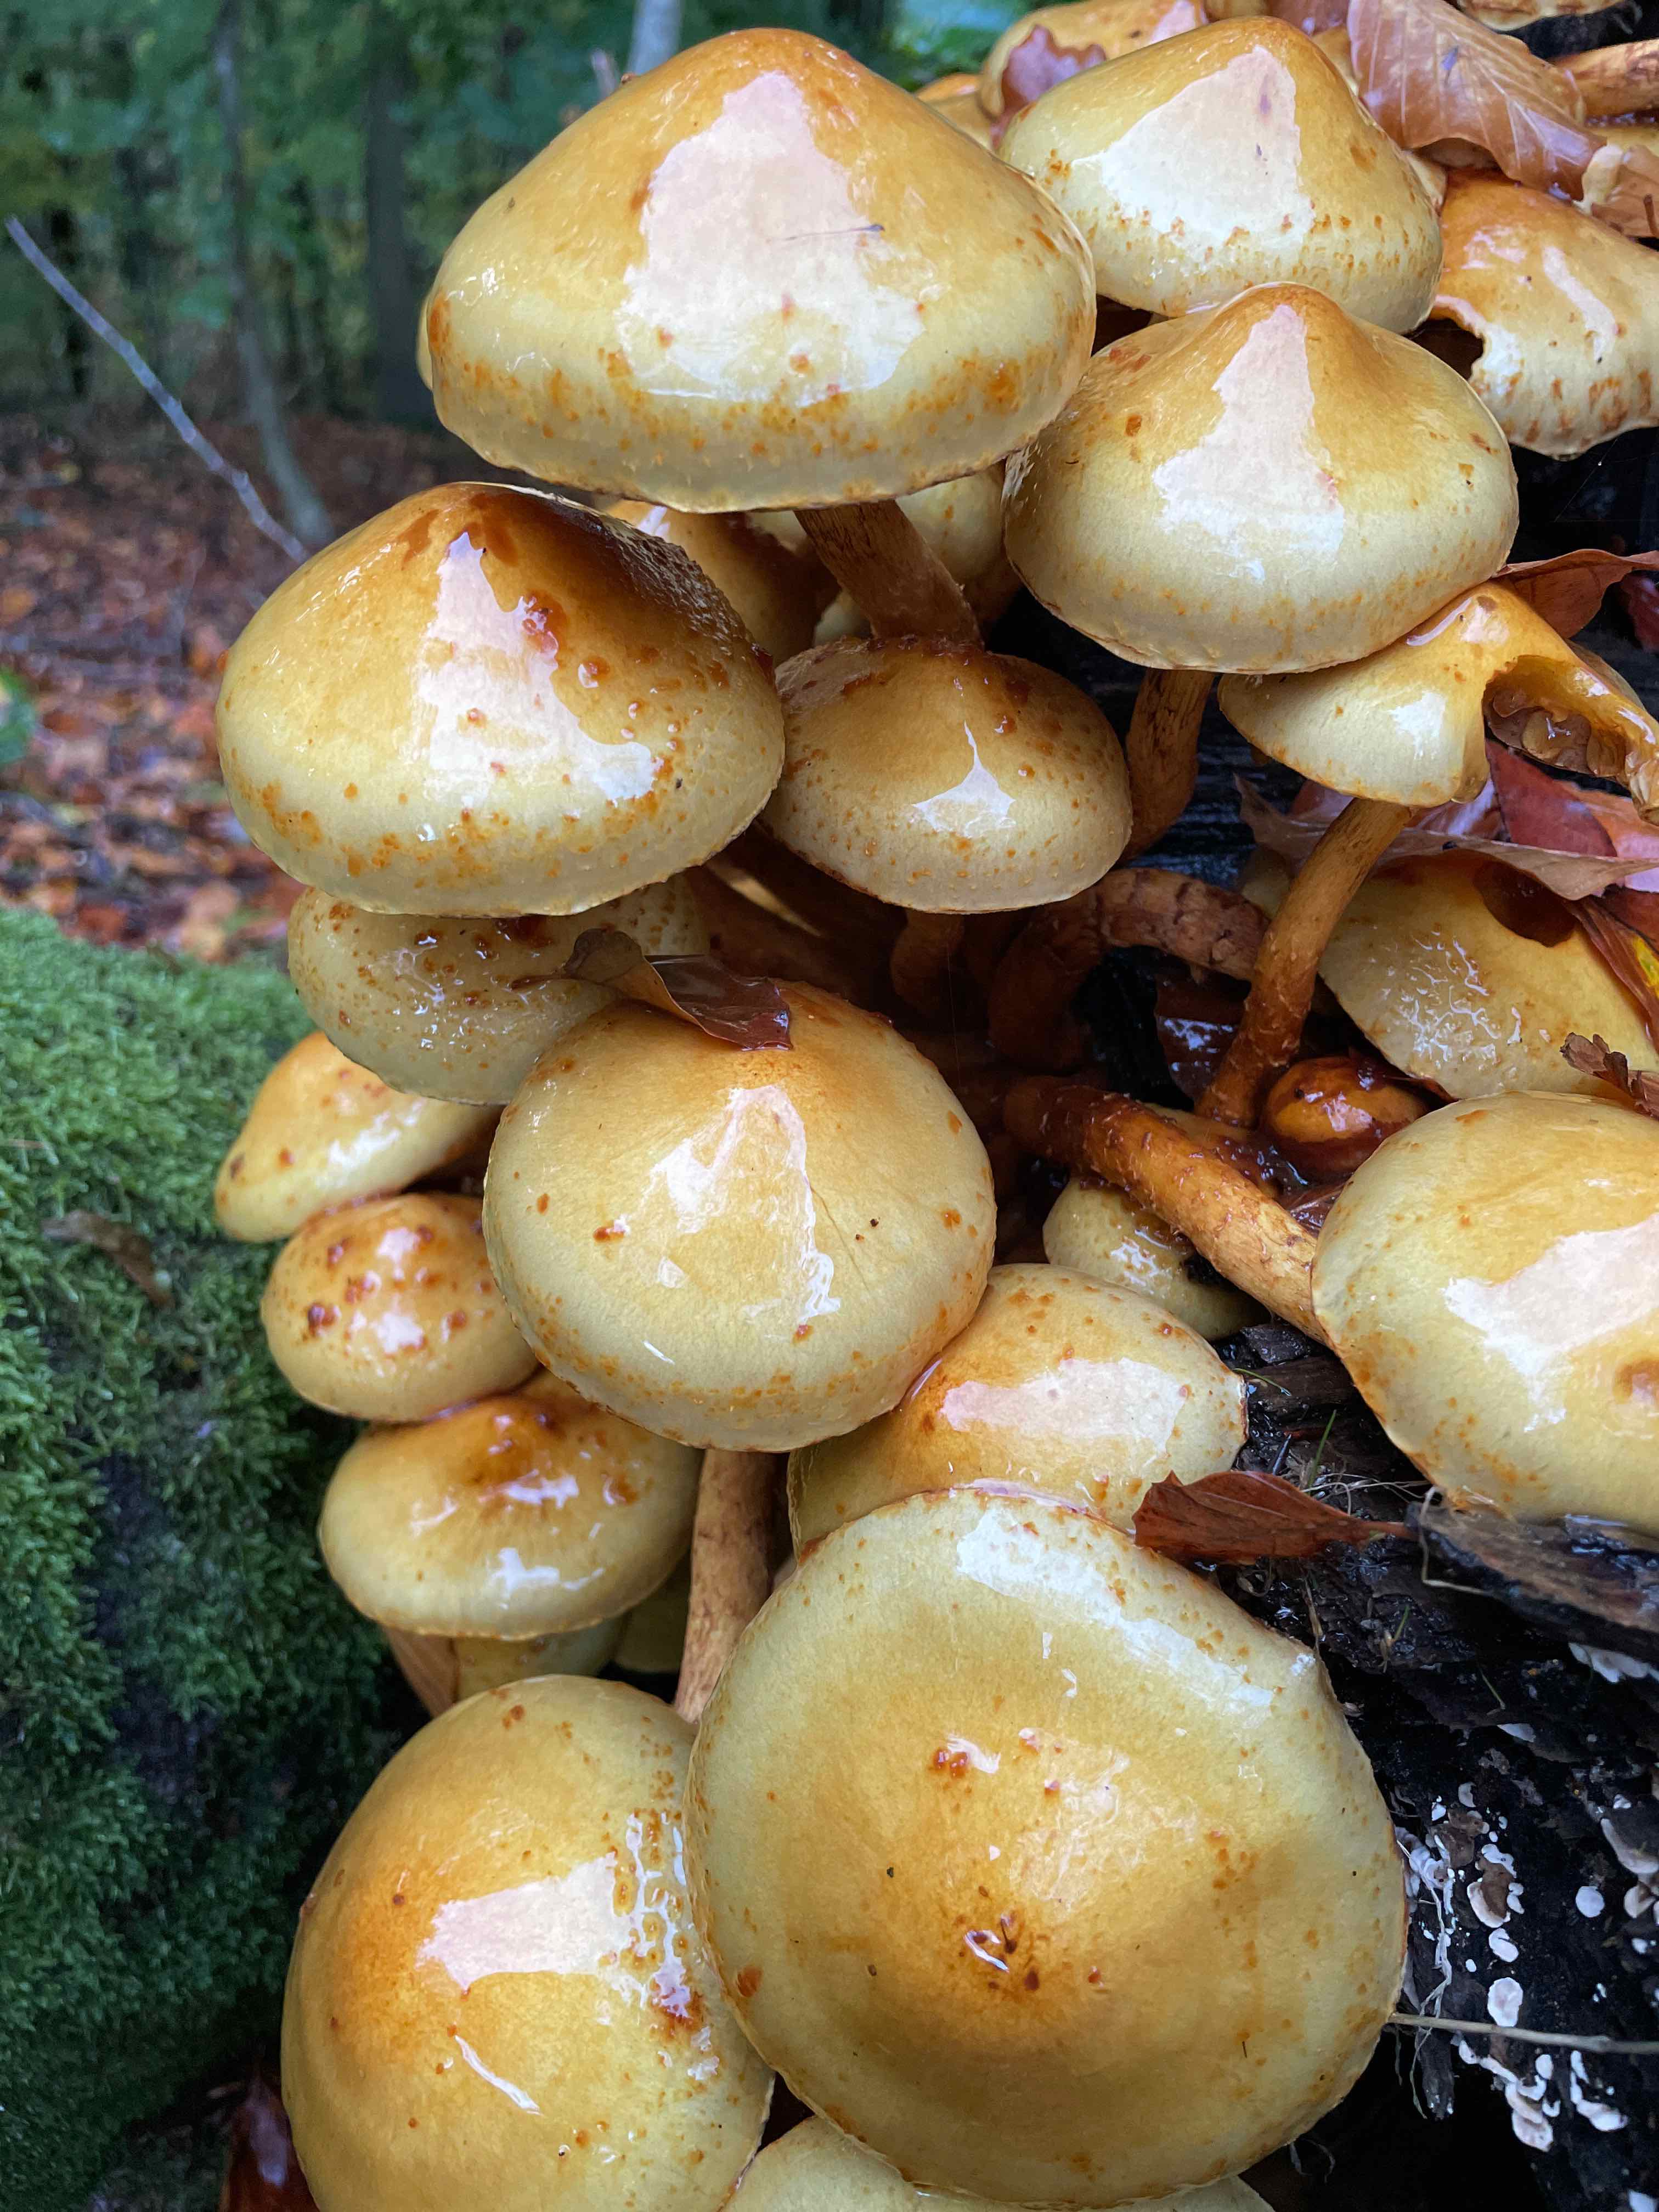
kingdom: Fungi
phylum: Basidiomycota
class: Agaricomycetes
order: Agaricales
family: Strophariaceae
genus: Pholiota
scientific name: Pholiota adiposa
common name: højtsiddende skælhat
